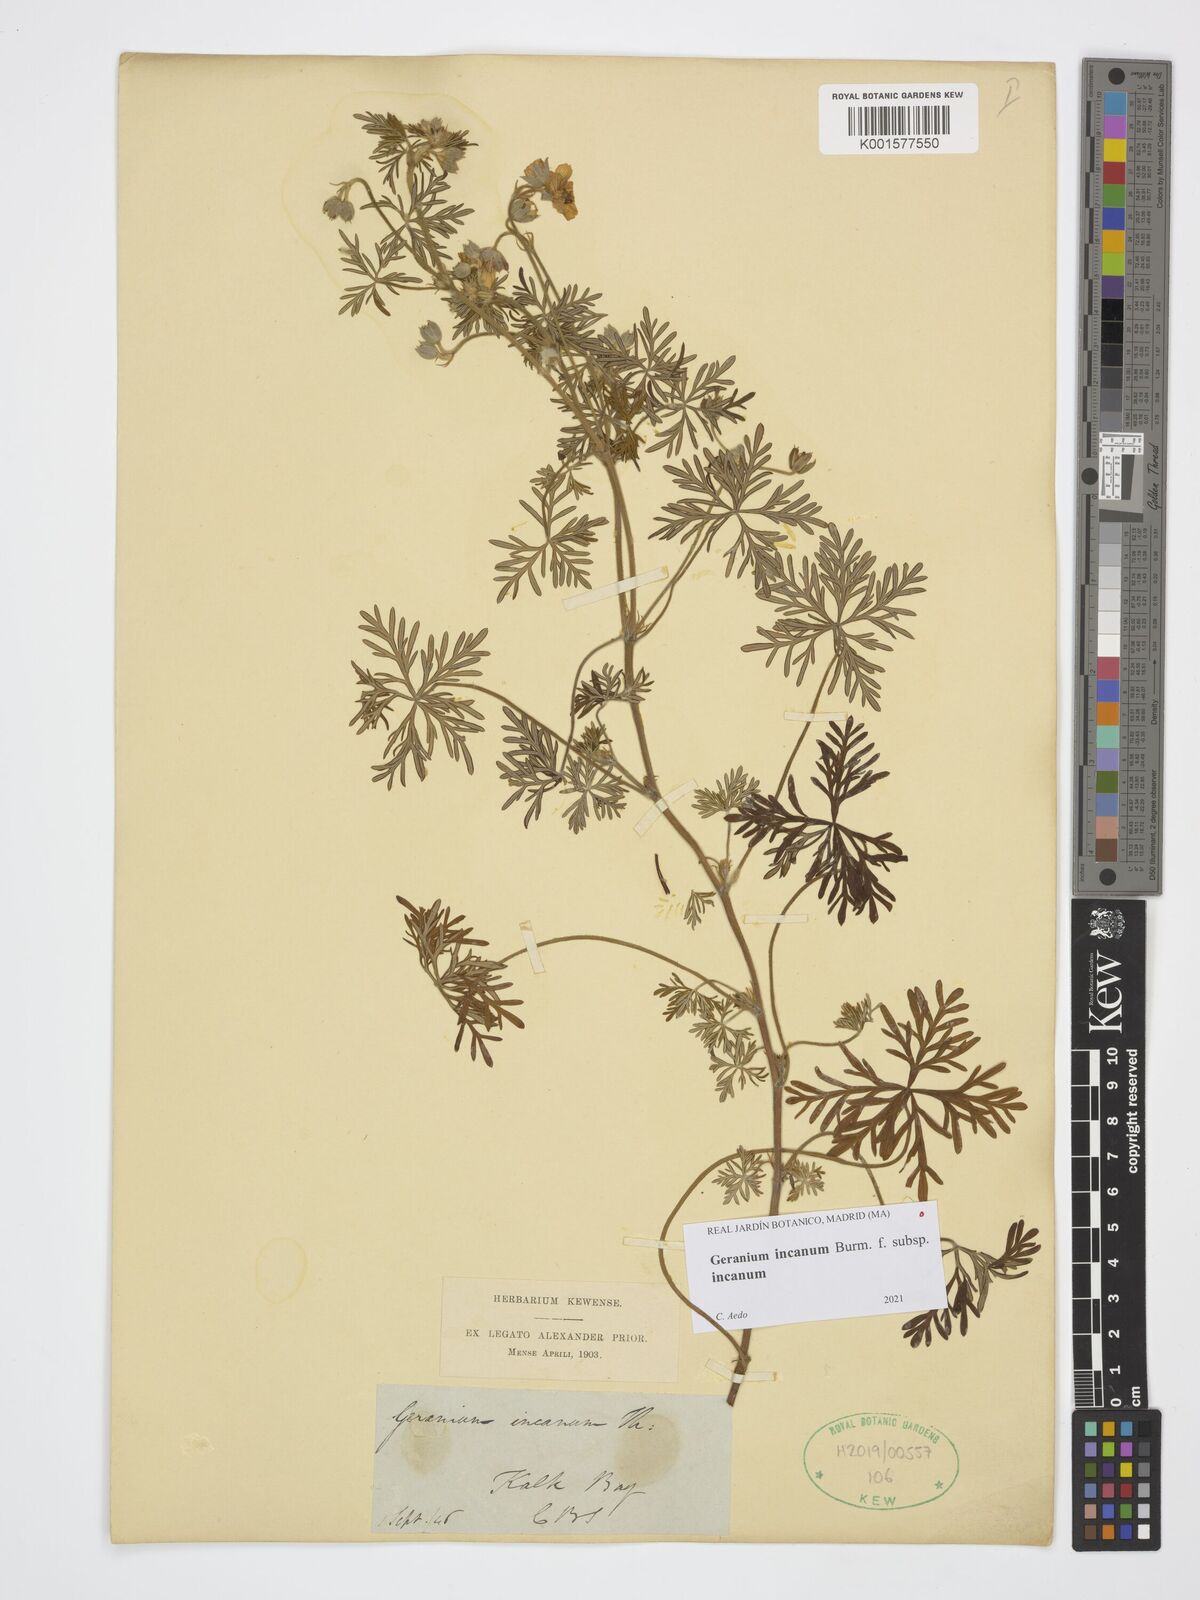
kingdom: Plantae
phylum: Tracheophyta
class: Magnoliopsida
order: Geraniales
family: Geraniaceae
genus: Geranium
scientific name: Geranium incanum
